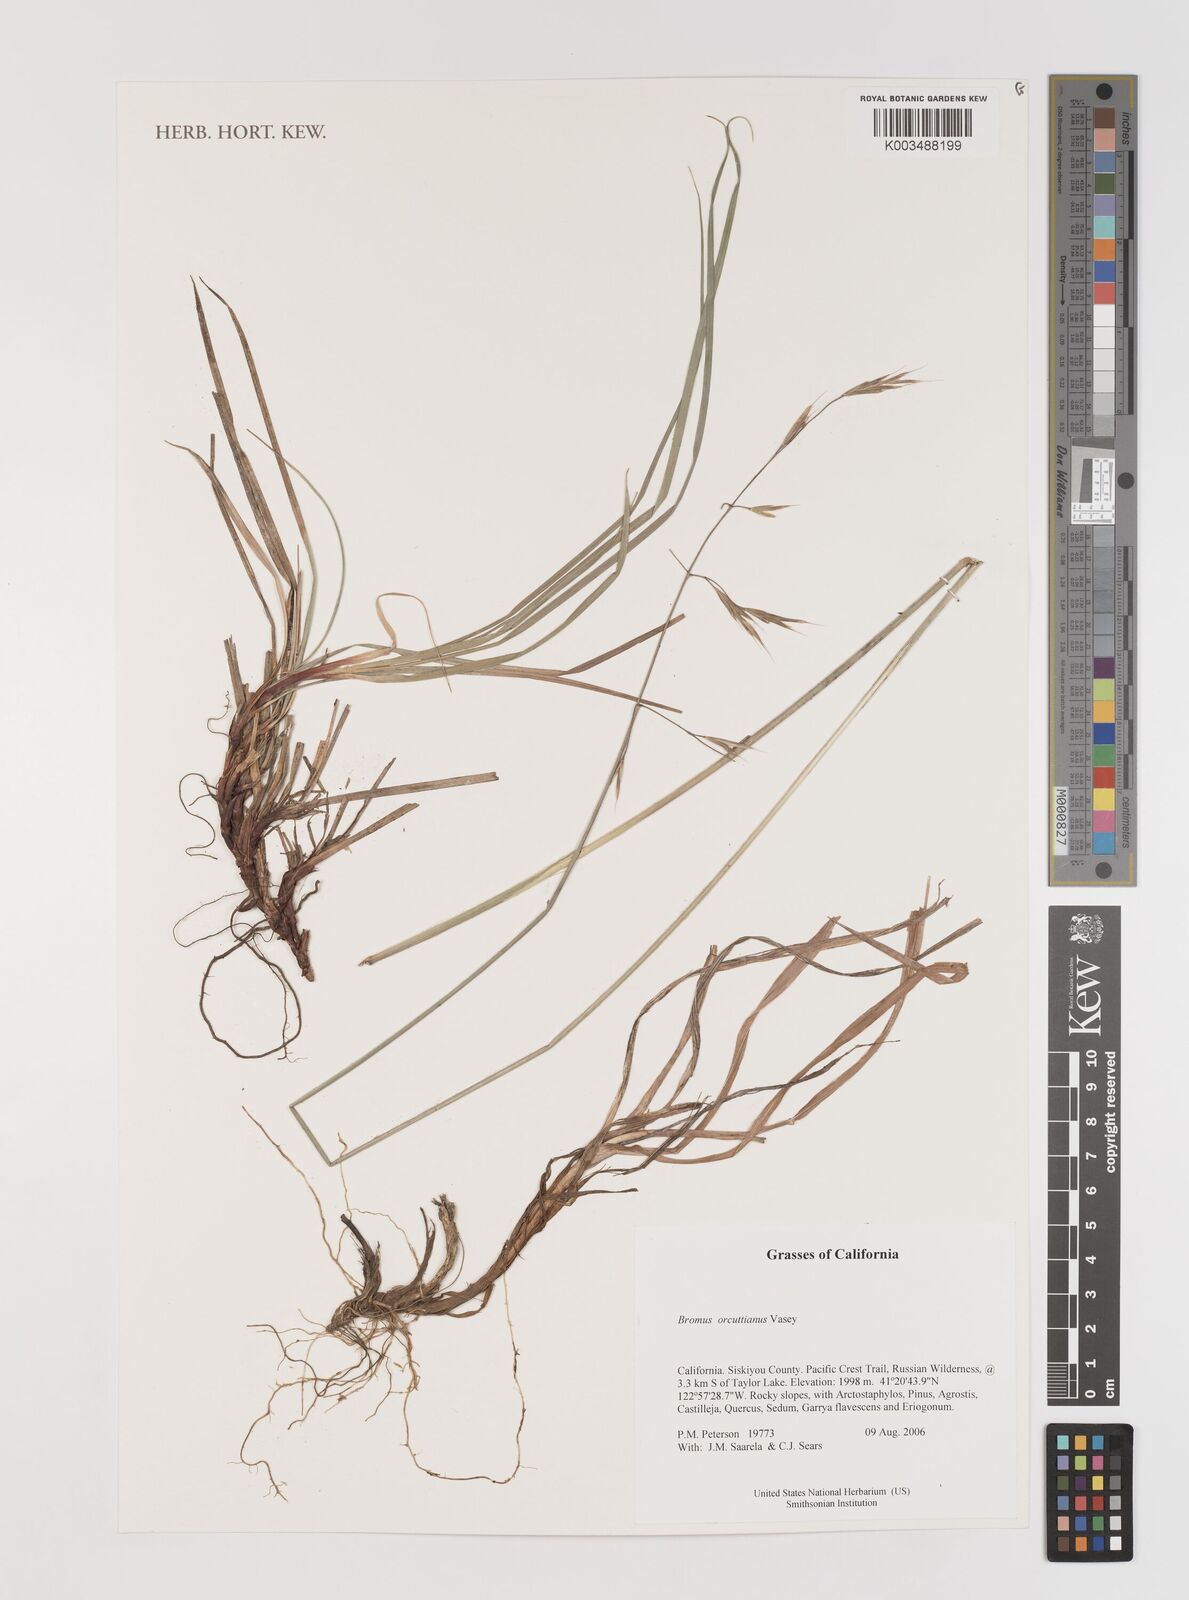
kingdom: Plantae
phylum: Tracheophyta
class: Liliopsida
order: Poales
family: Poaceae
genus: Bromus
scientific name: Bromus orcuttianus
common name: Orcutt's brome
